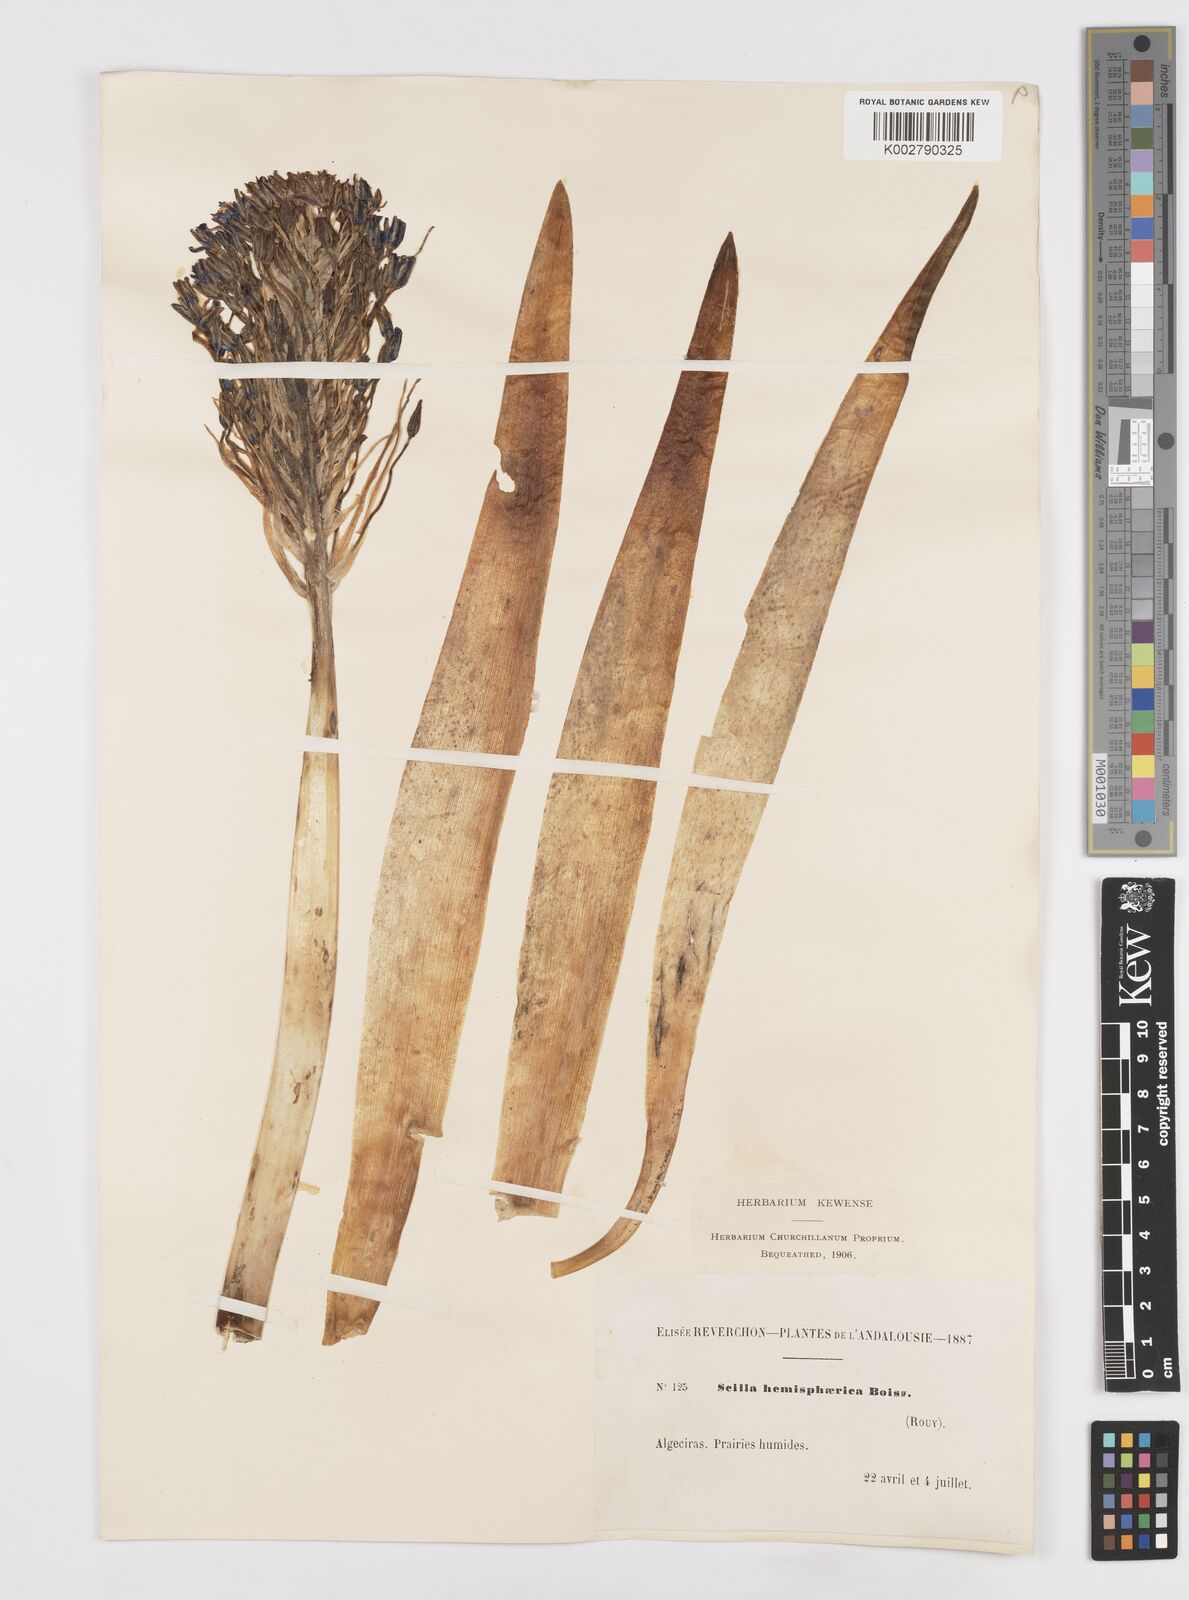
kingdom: Plantae
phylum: Tracheophyta
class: Liliopsida
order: Asparagales
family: Asparagaceae
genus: Scilla
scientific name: Scilla peruviana
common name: Portuguese squill
